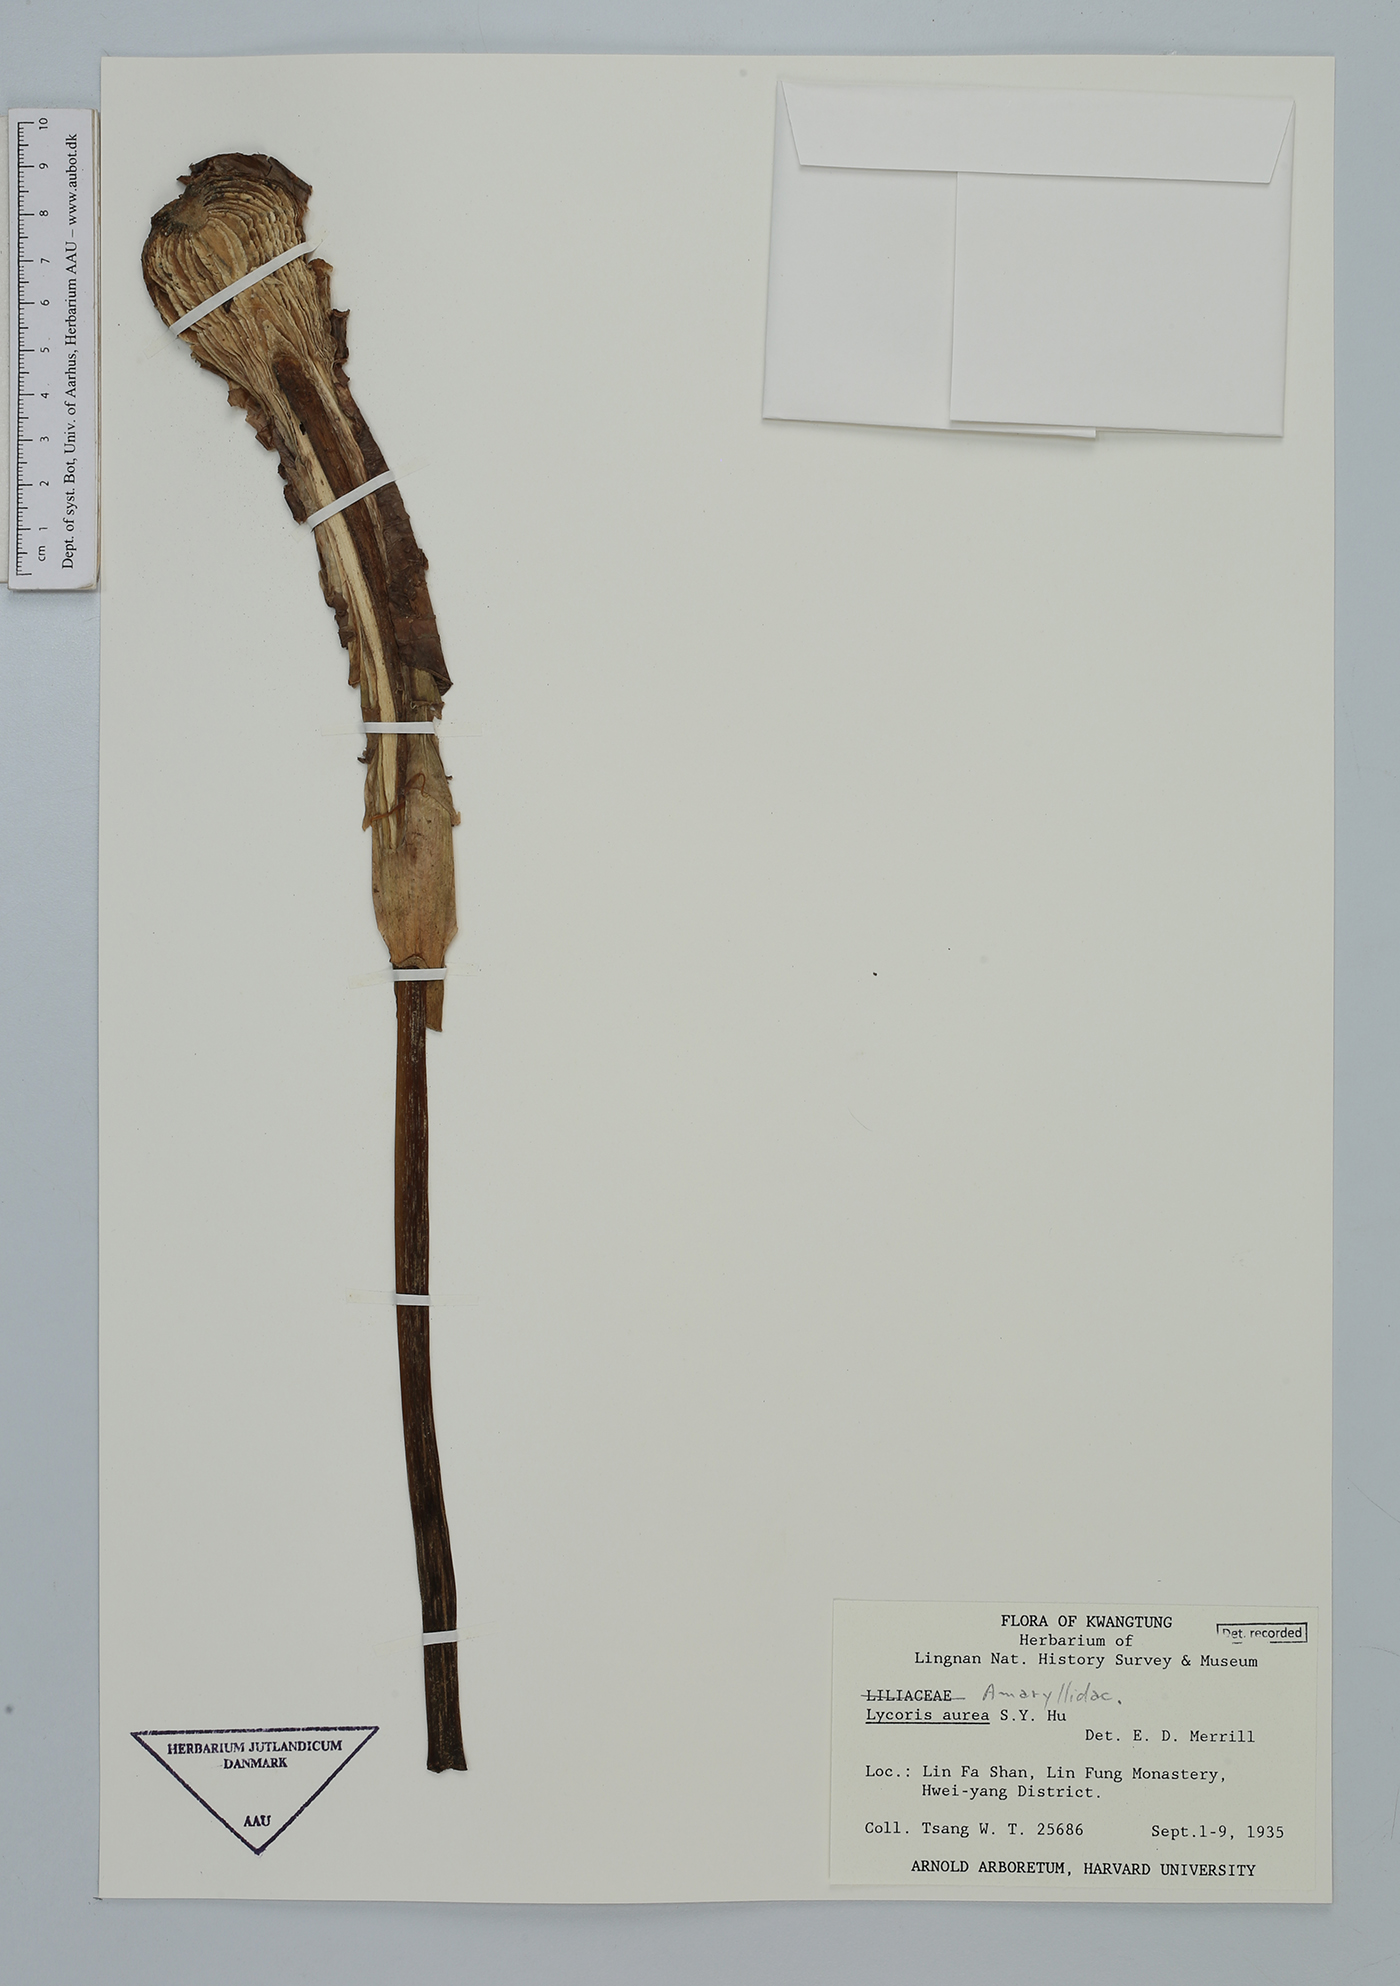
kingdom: Plantae
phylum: Tracheophyta
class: Liliopsida
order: Asparagales
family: Amaryllidaceae
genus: Lycoris
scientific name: Lycoris aurea
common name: Golden hurricane-lily
